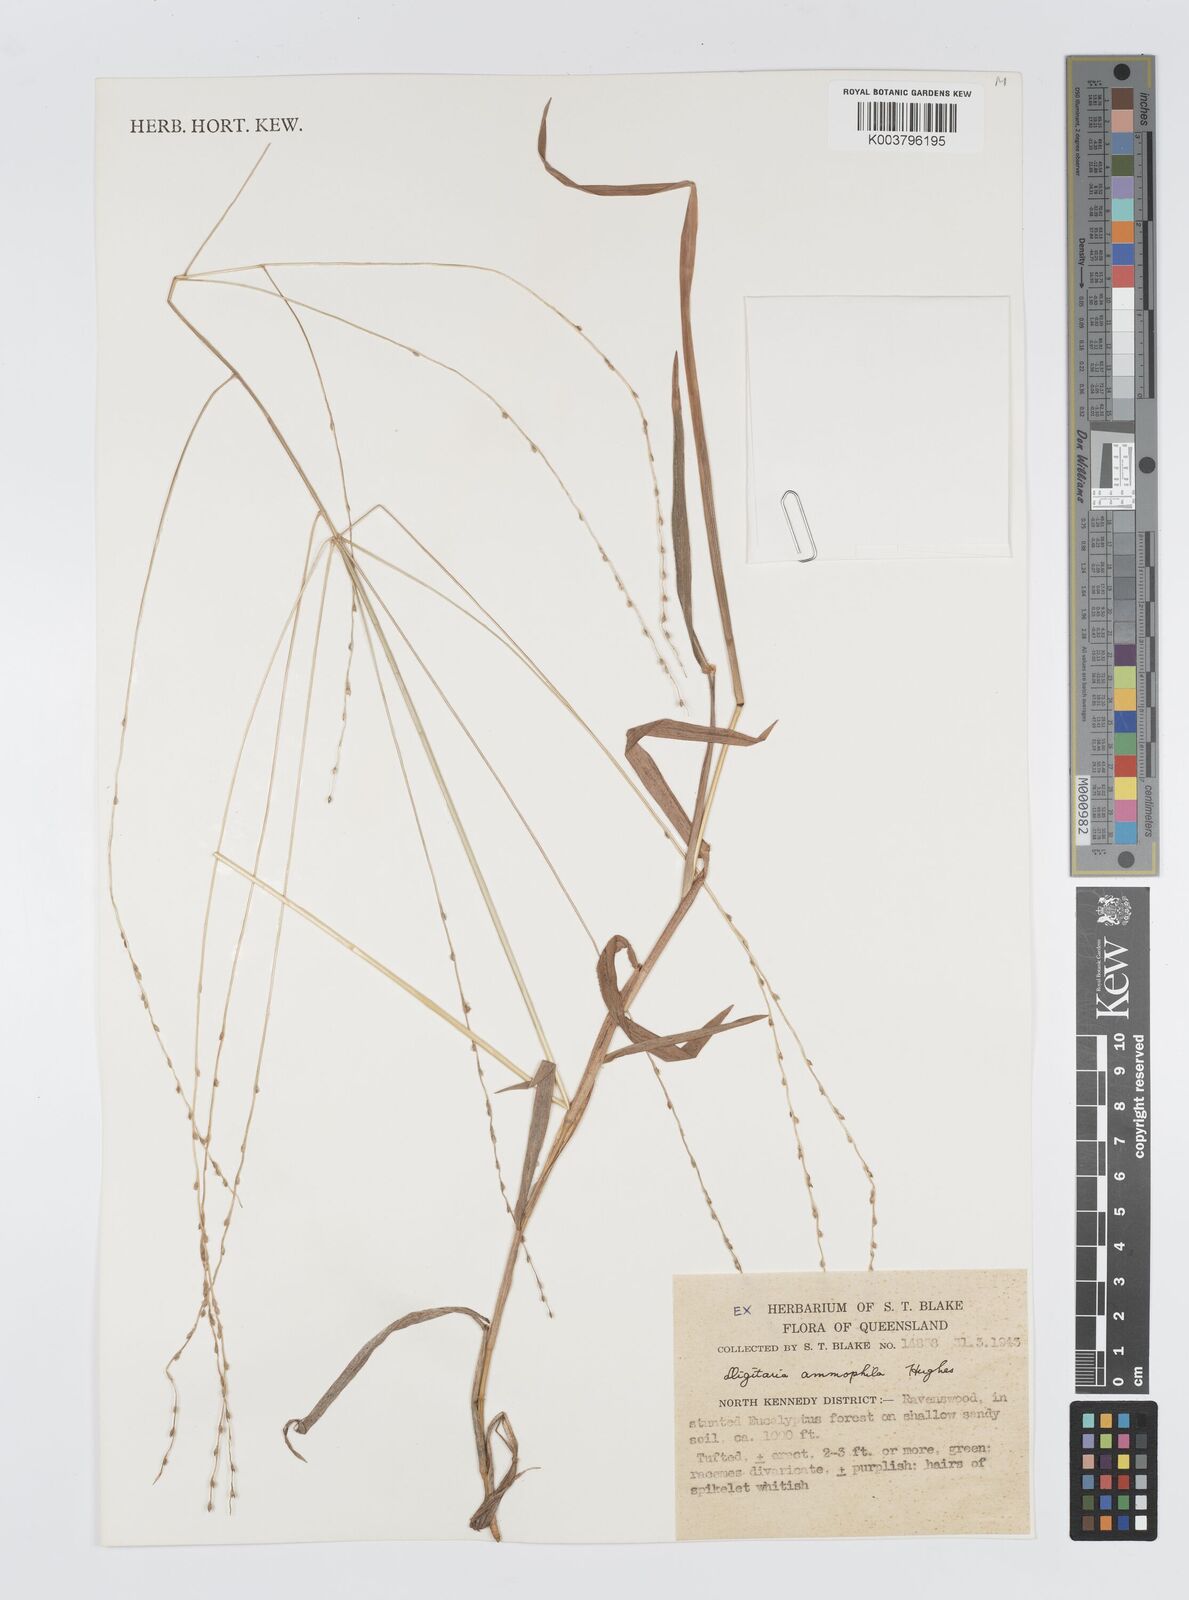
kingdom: Plantae
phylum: Tracheophyta
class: Liliopsida
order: Poales
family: Poaceae
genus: Digitaria
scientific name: Digitaria ammophila
